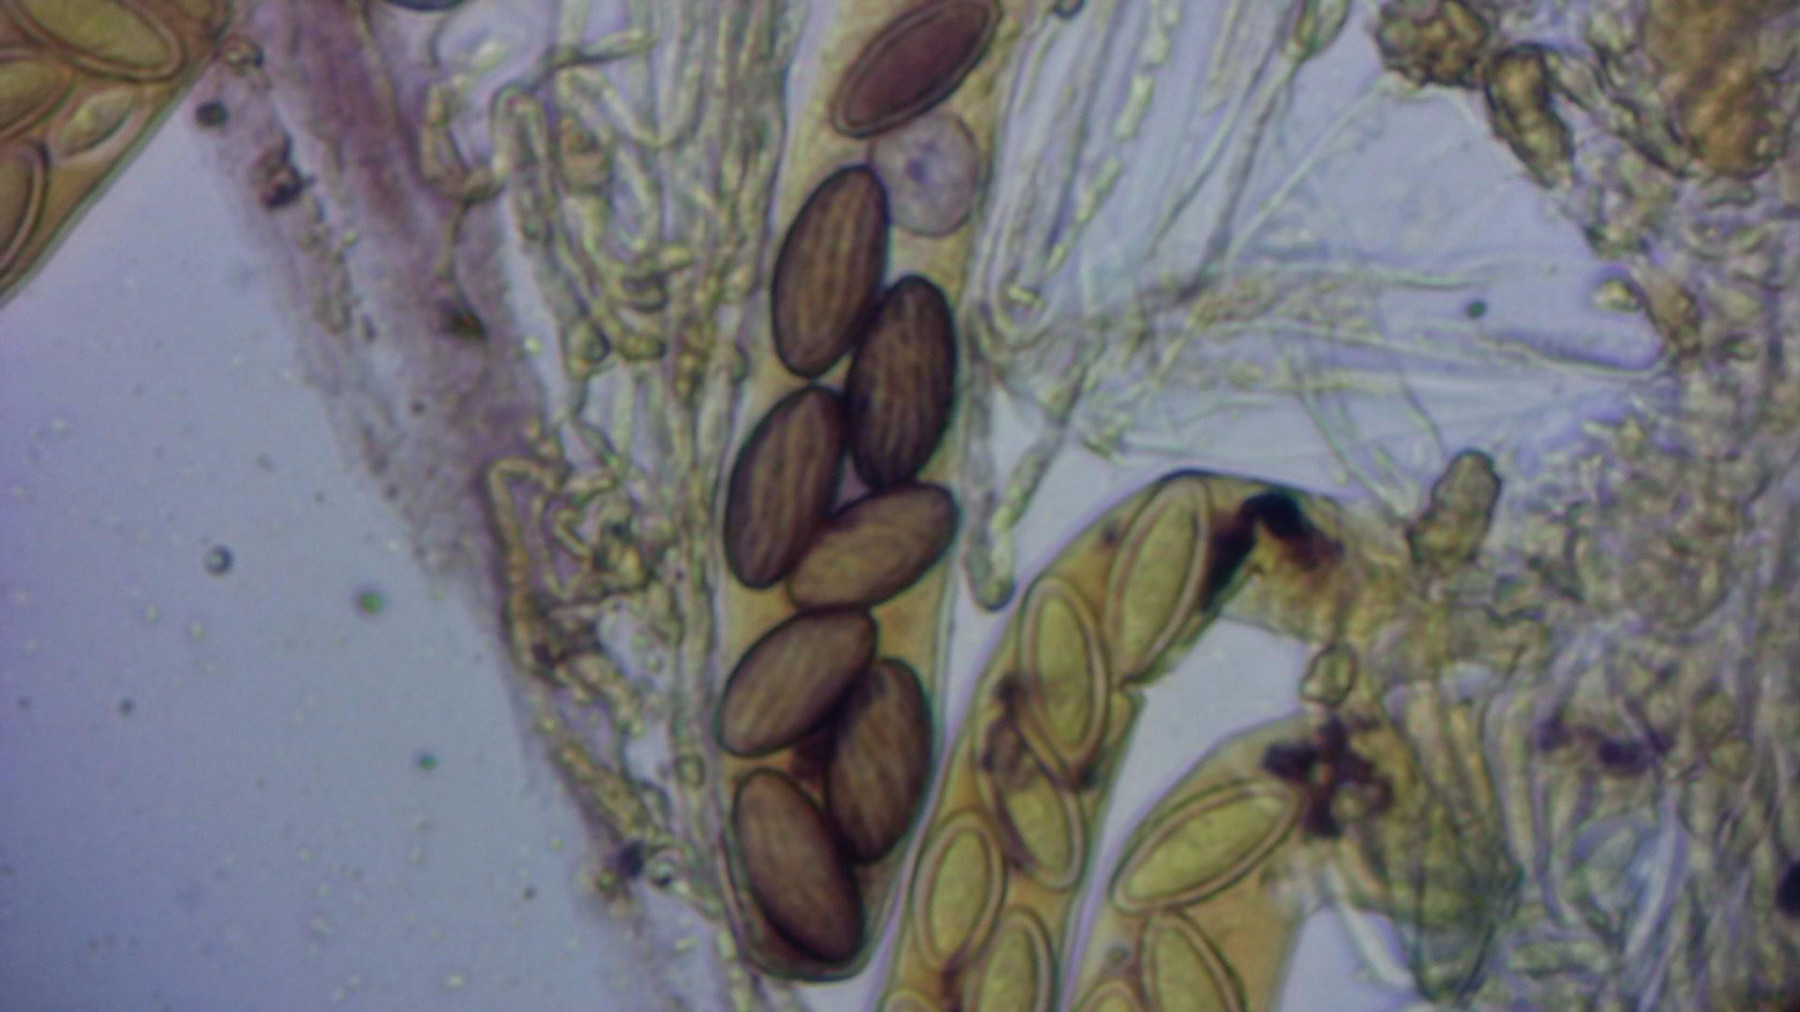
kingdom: Fungi
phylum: Ascomycota
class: Pezizomycetes
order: Pezizales
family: Ascobolaceae
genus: Ascobolus
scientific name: Ascobolus lignatilis
